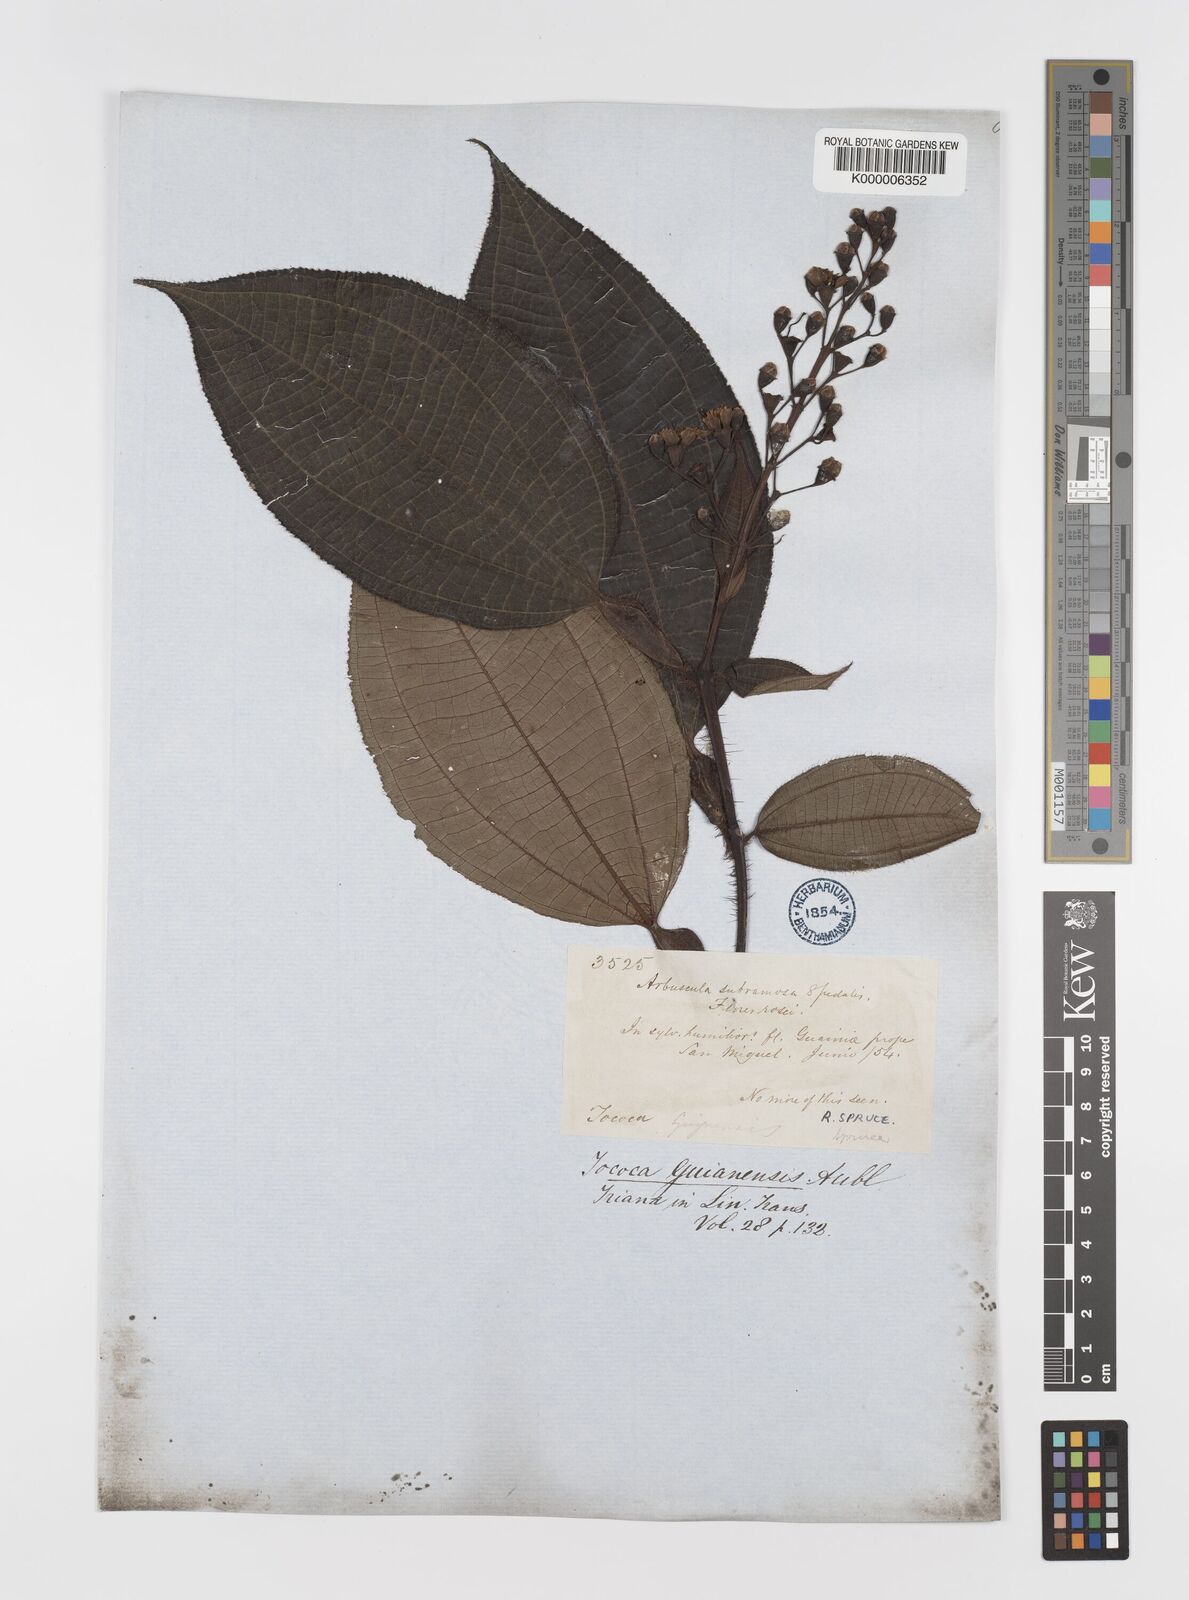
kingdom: Plantae
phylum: Tracheophyta
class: Magnoliopsida
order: Myrtales
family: Melastomataceae
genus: Miconia
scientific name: Miconia
